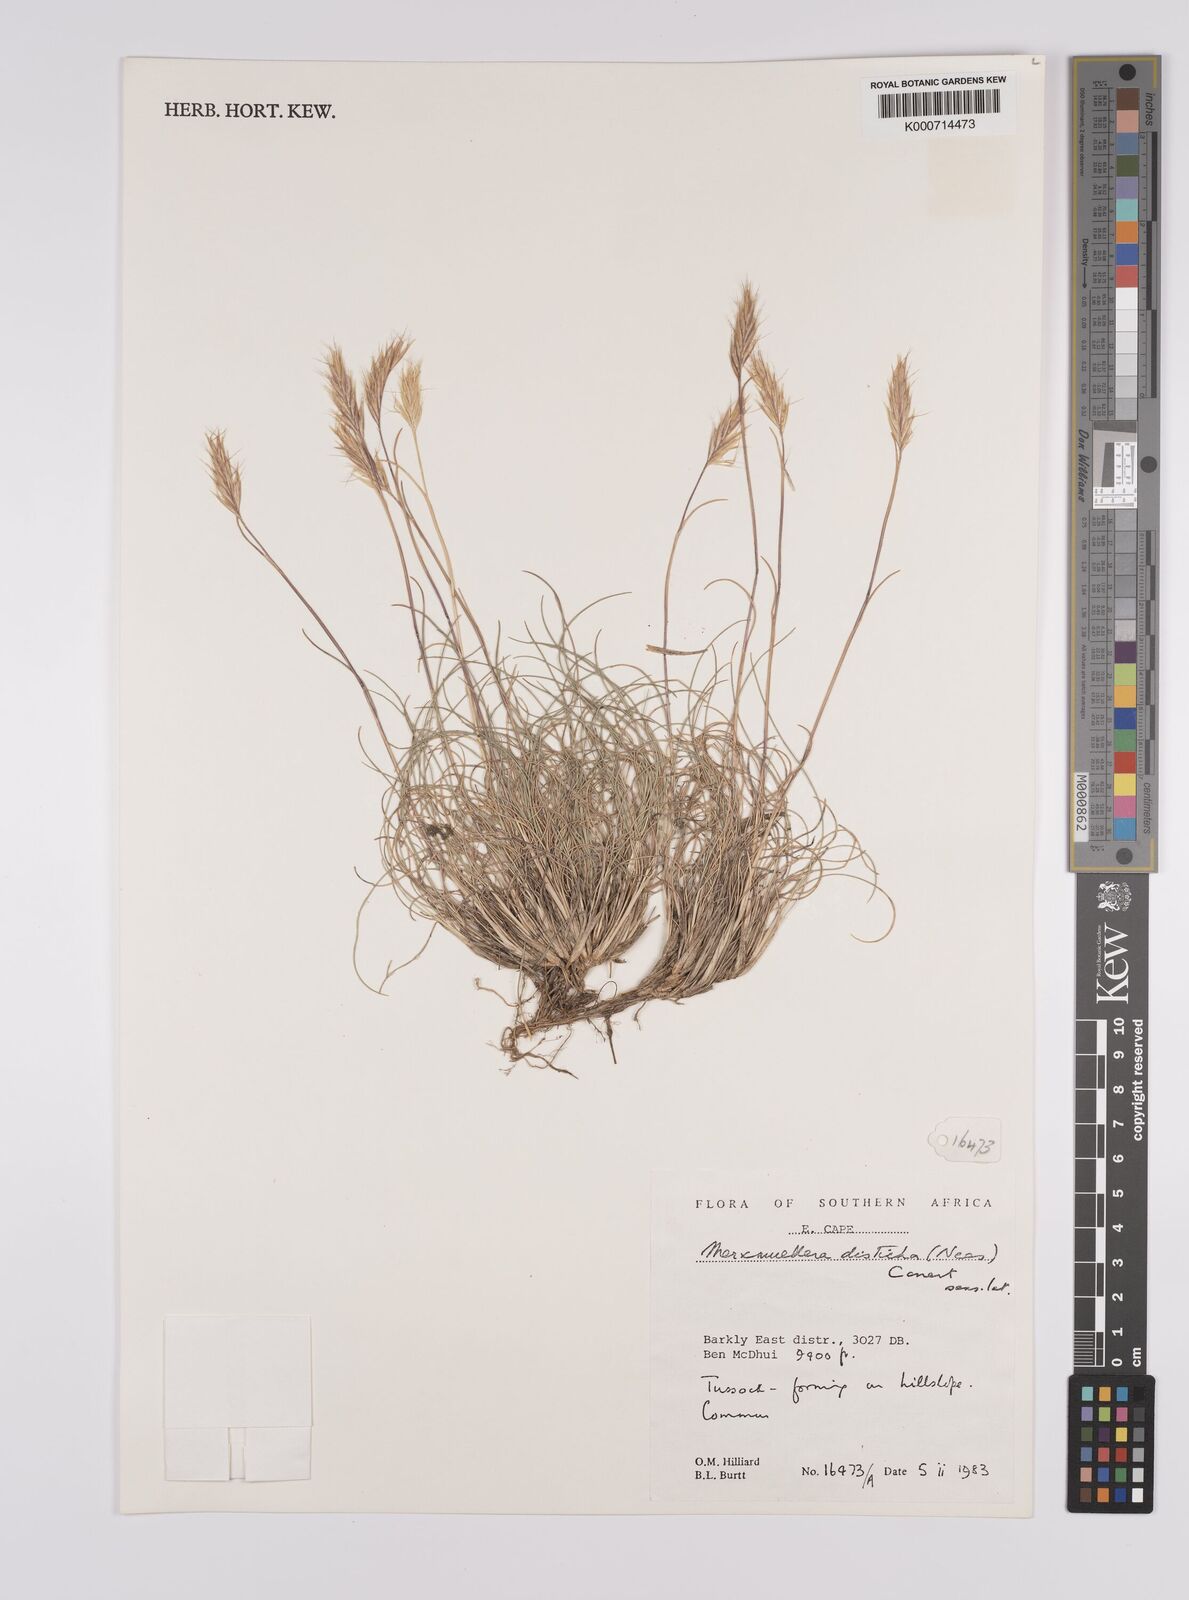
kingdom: Plantae
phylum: Tracheophyta
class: Liliopsida
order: Poales
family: Poaceae
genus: Tenaxia
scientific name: Tenaxia disticha
